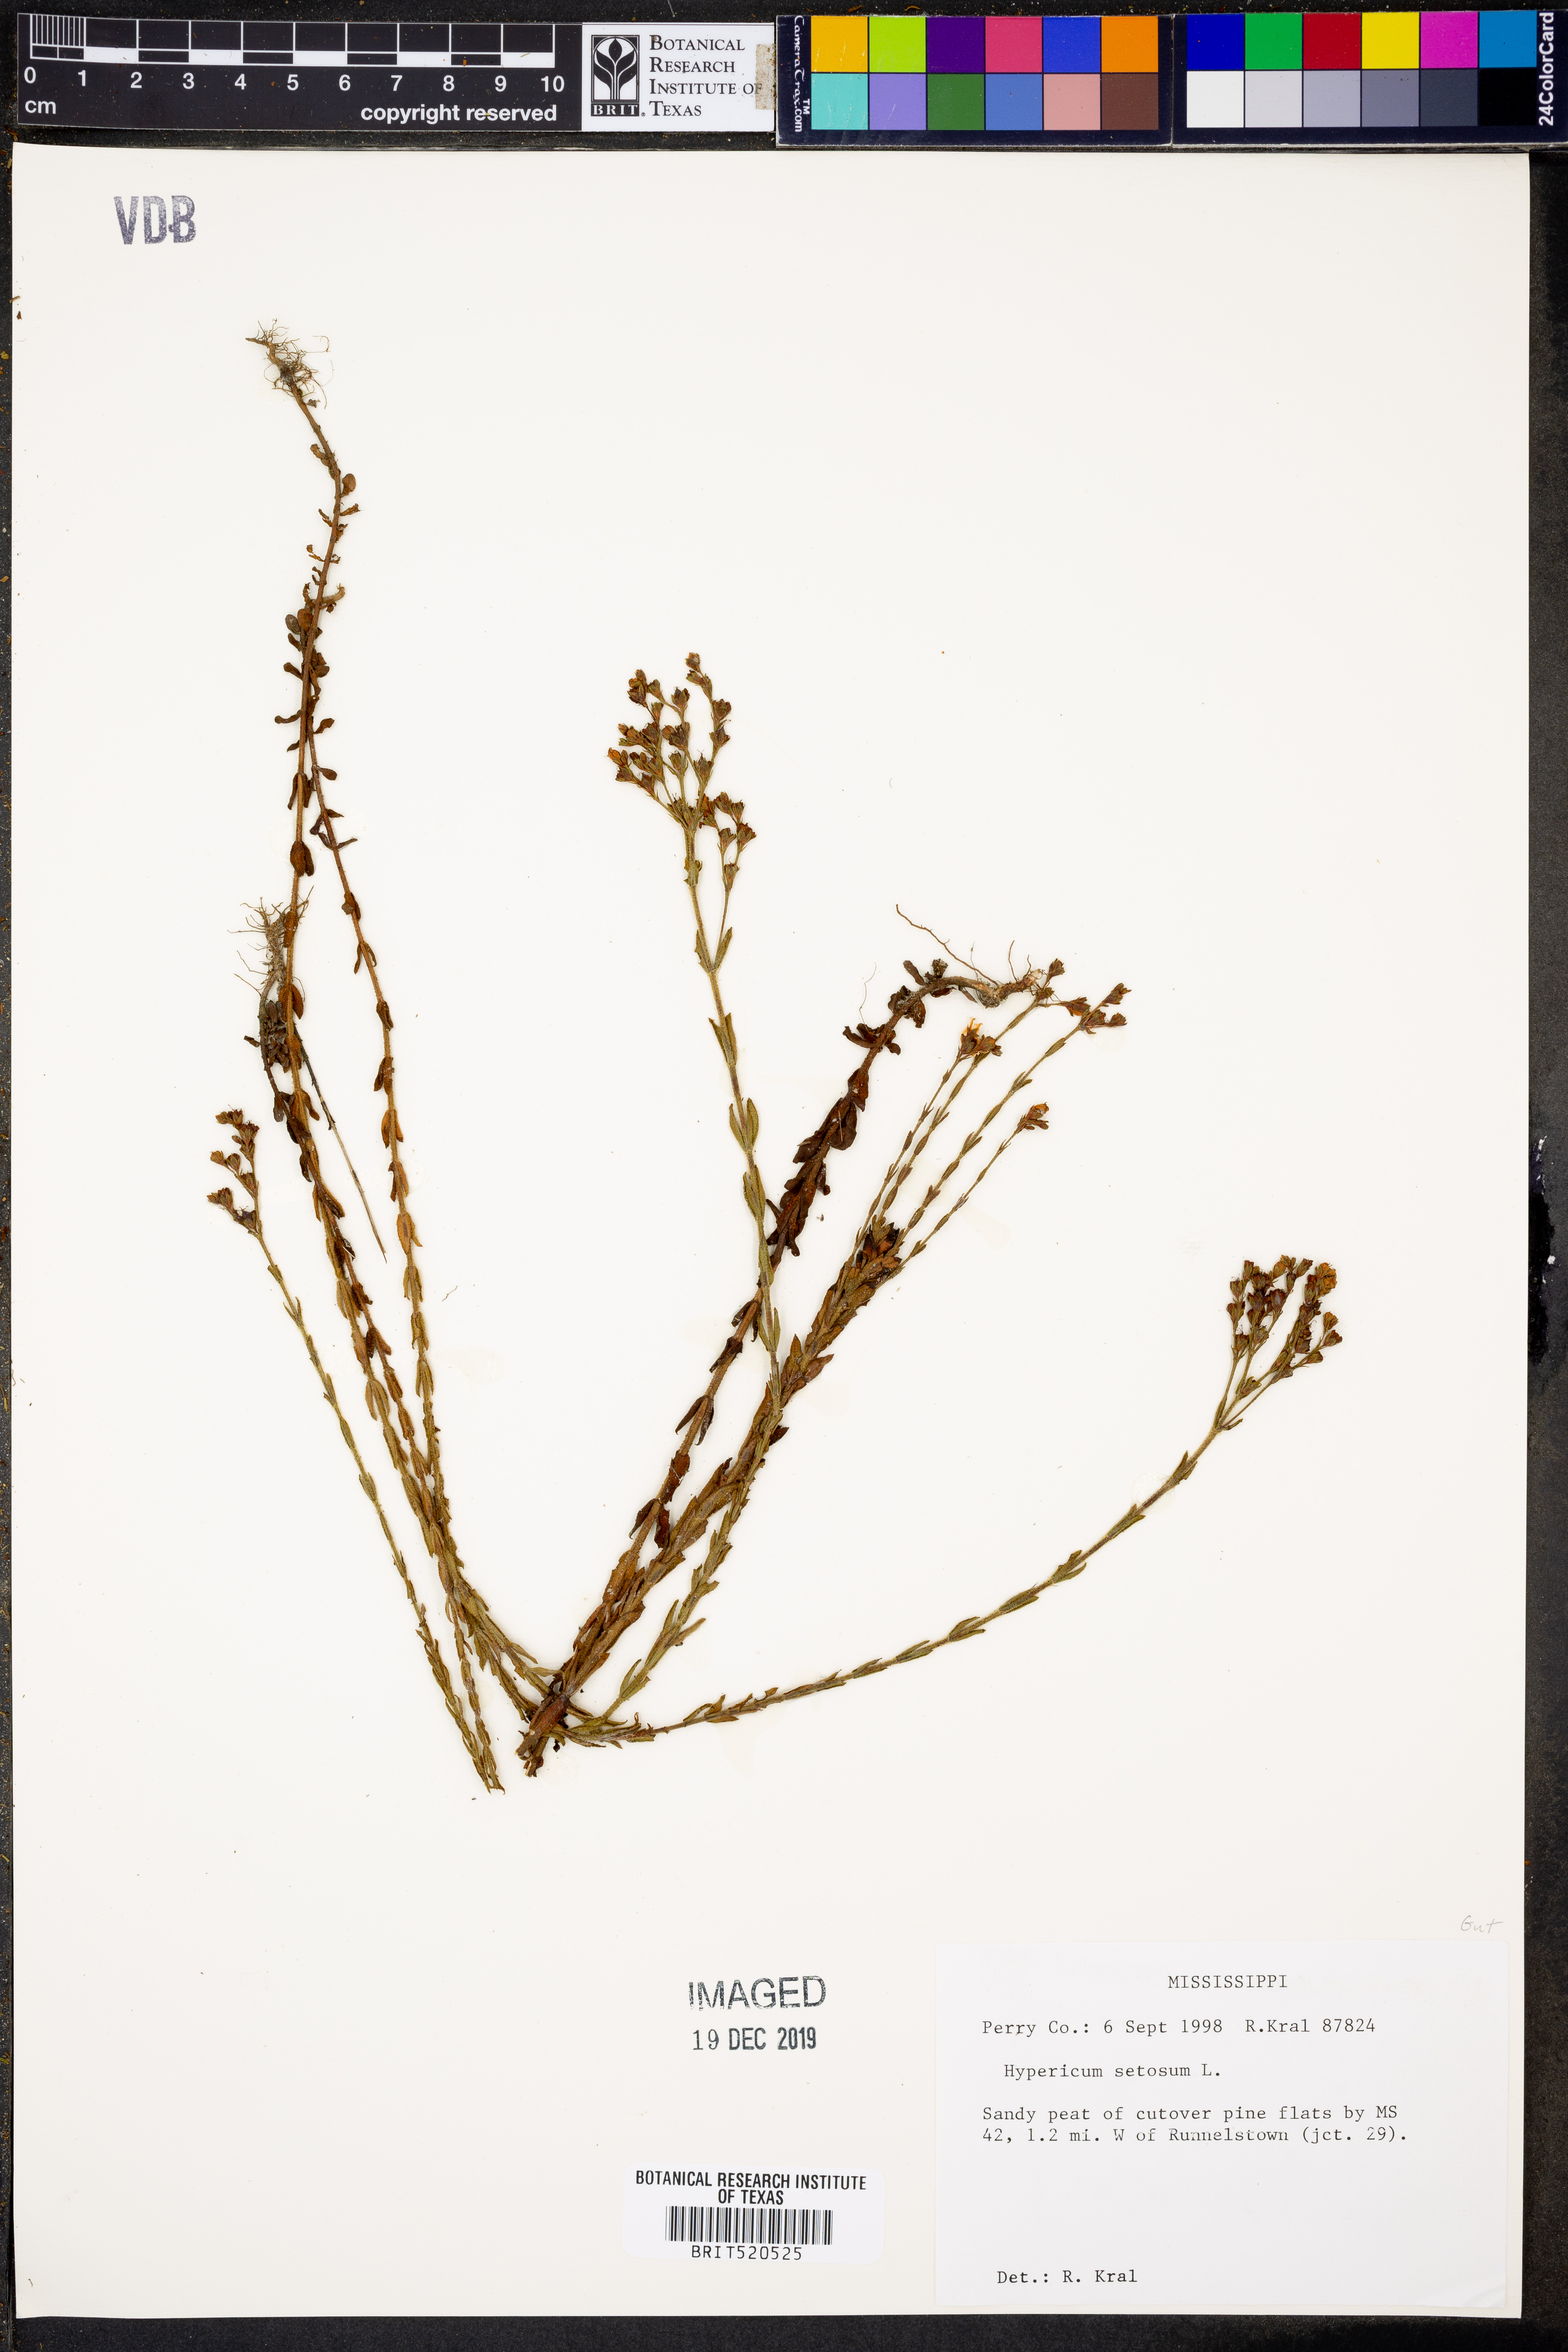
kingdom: Plantae
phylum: Tracheophyta
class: Magnoliopsida
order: Malpighiales
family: Hypericaceae
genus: Hypericum
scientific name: Hypericum setosum
